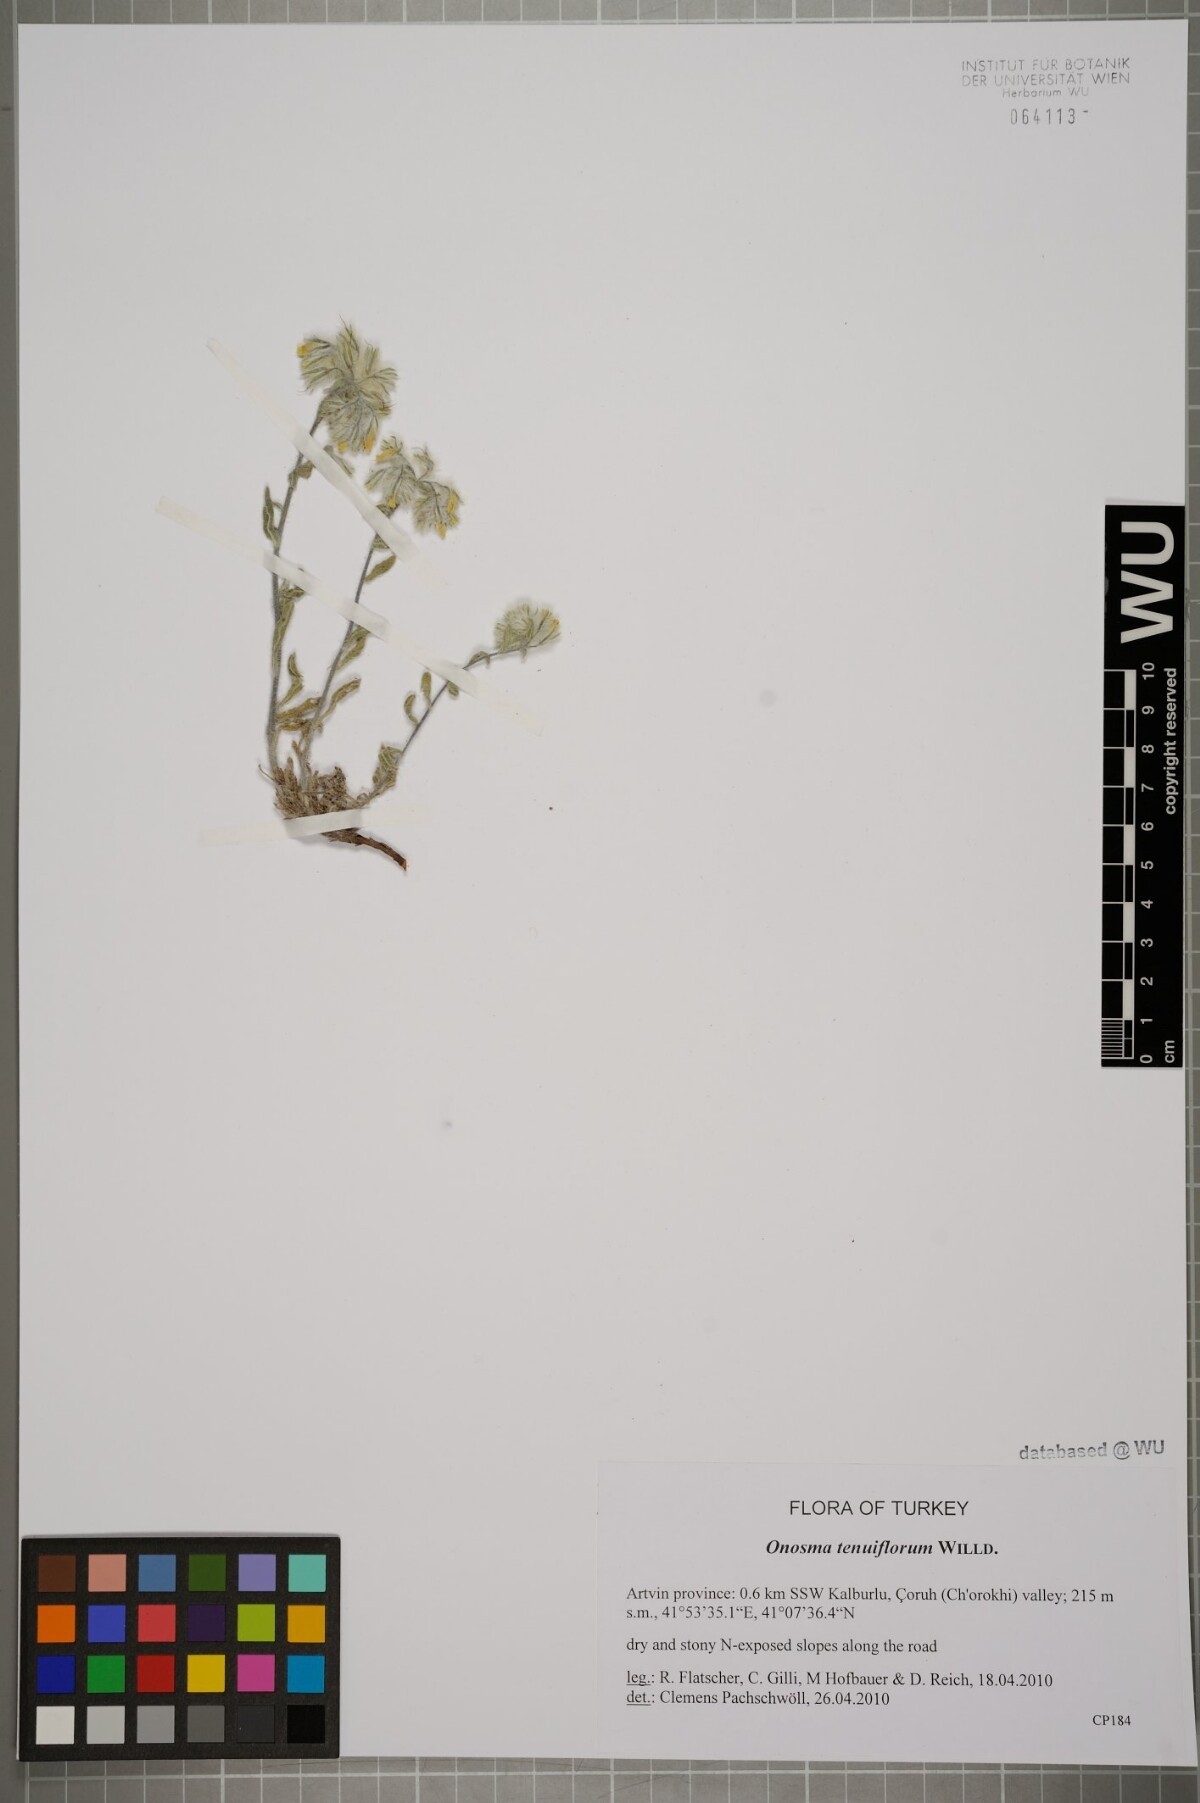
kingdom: Plantae
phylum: Tracheophyta
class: Magnoliopsida
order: Boraginales
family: Boraginaceae
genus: Onosma
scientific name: Onosma tenuiflora
